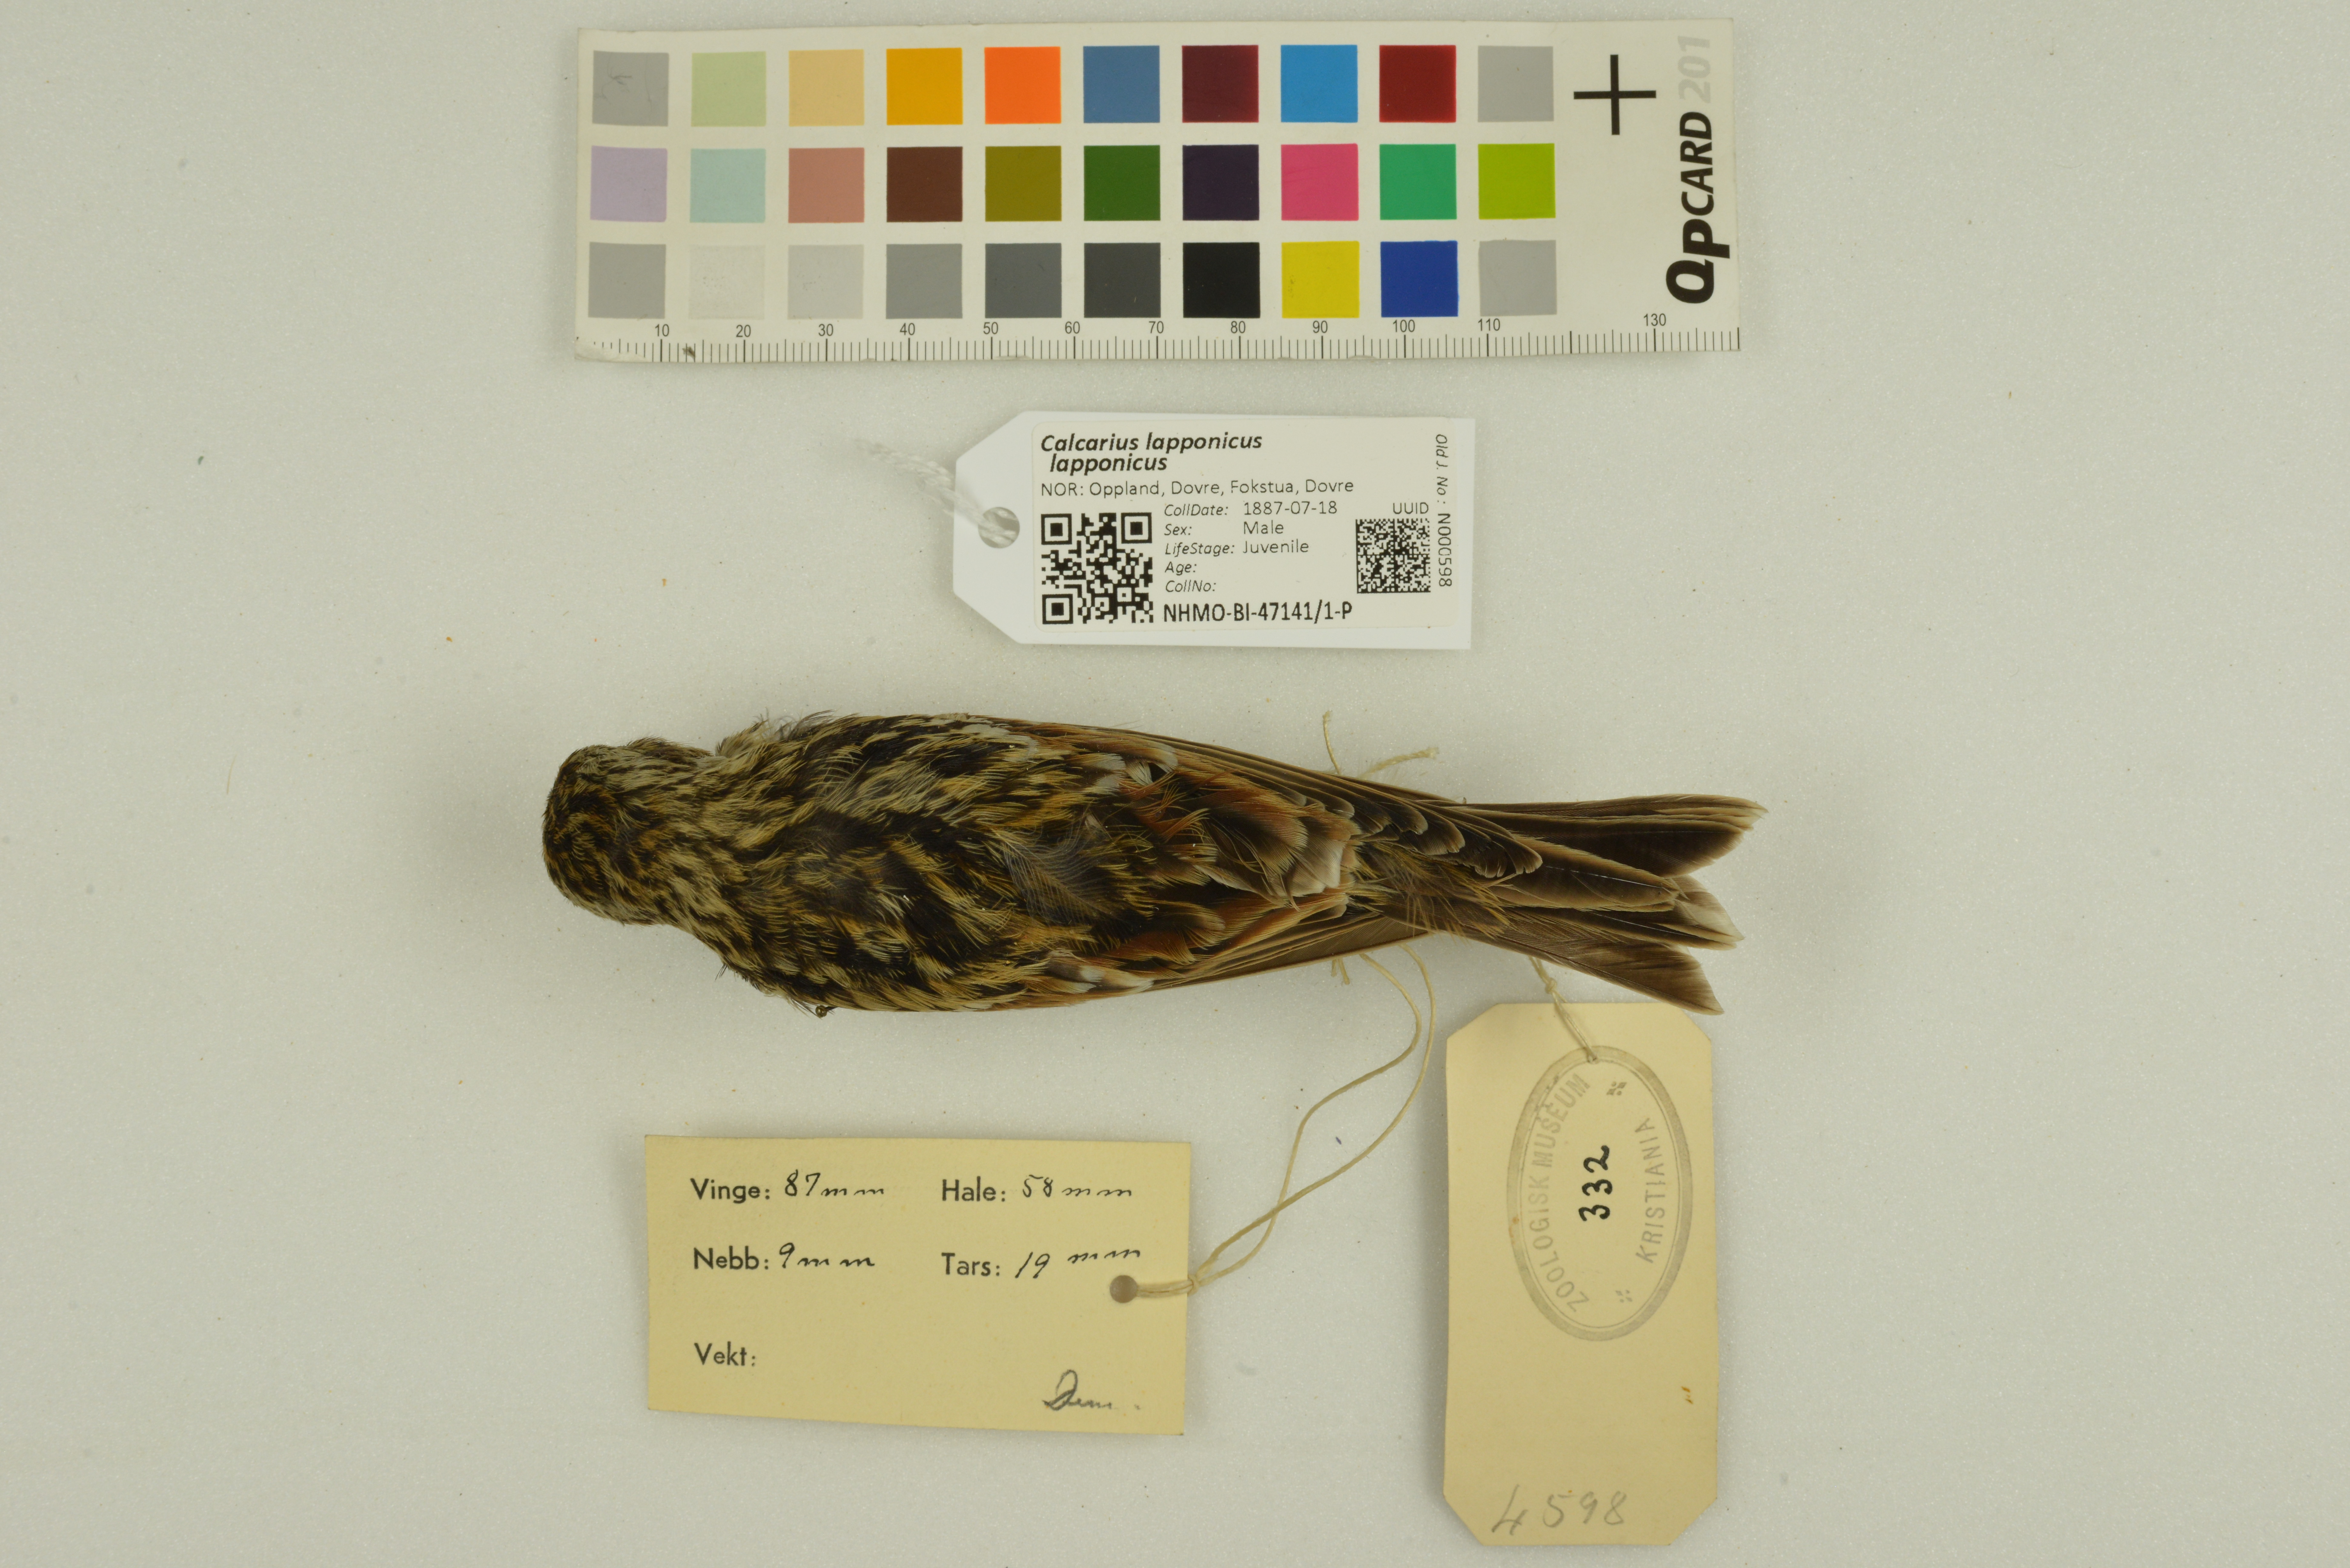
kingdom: Animalia
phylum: Chordata
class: Aves
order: Passeriformes
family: Calcariidae
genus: Calcarius
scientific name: Calcarius lapponicus
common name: Lapland longspur
